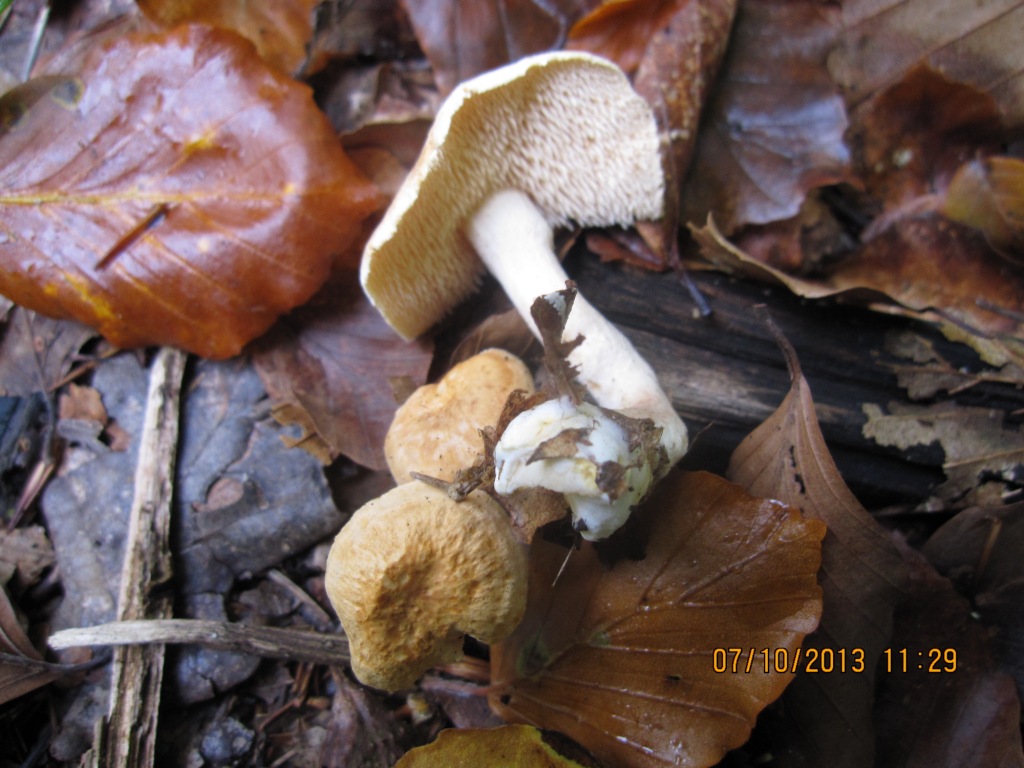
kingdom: Fungi
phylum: Basidiomycota
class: Agaricomycetes
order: Cantharellales
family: Hydnaceae
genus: Hydnum
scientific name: Hydnum umbilicatum
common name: navle-pigsvamp
